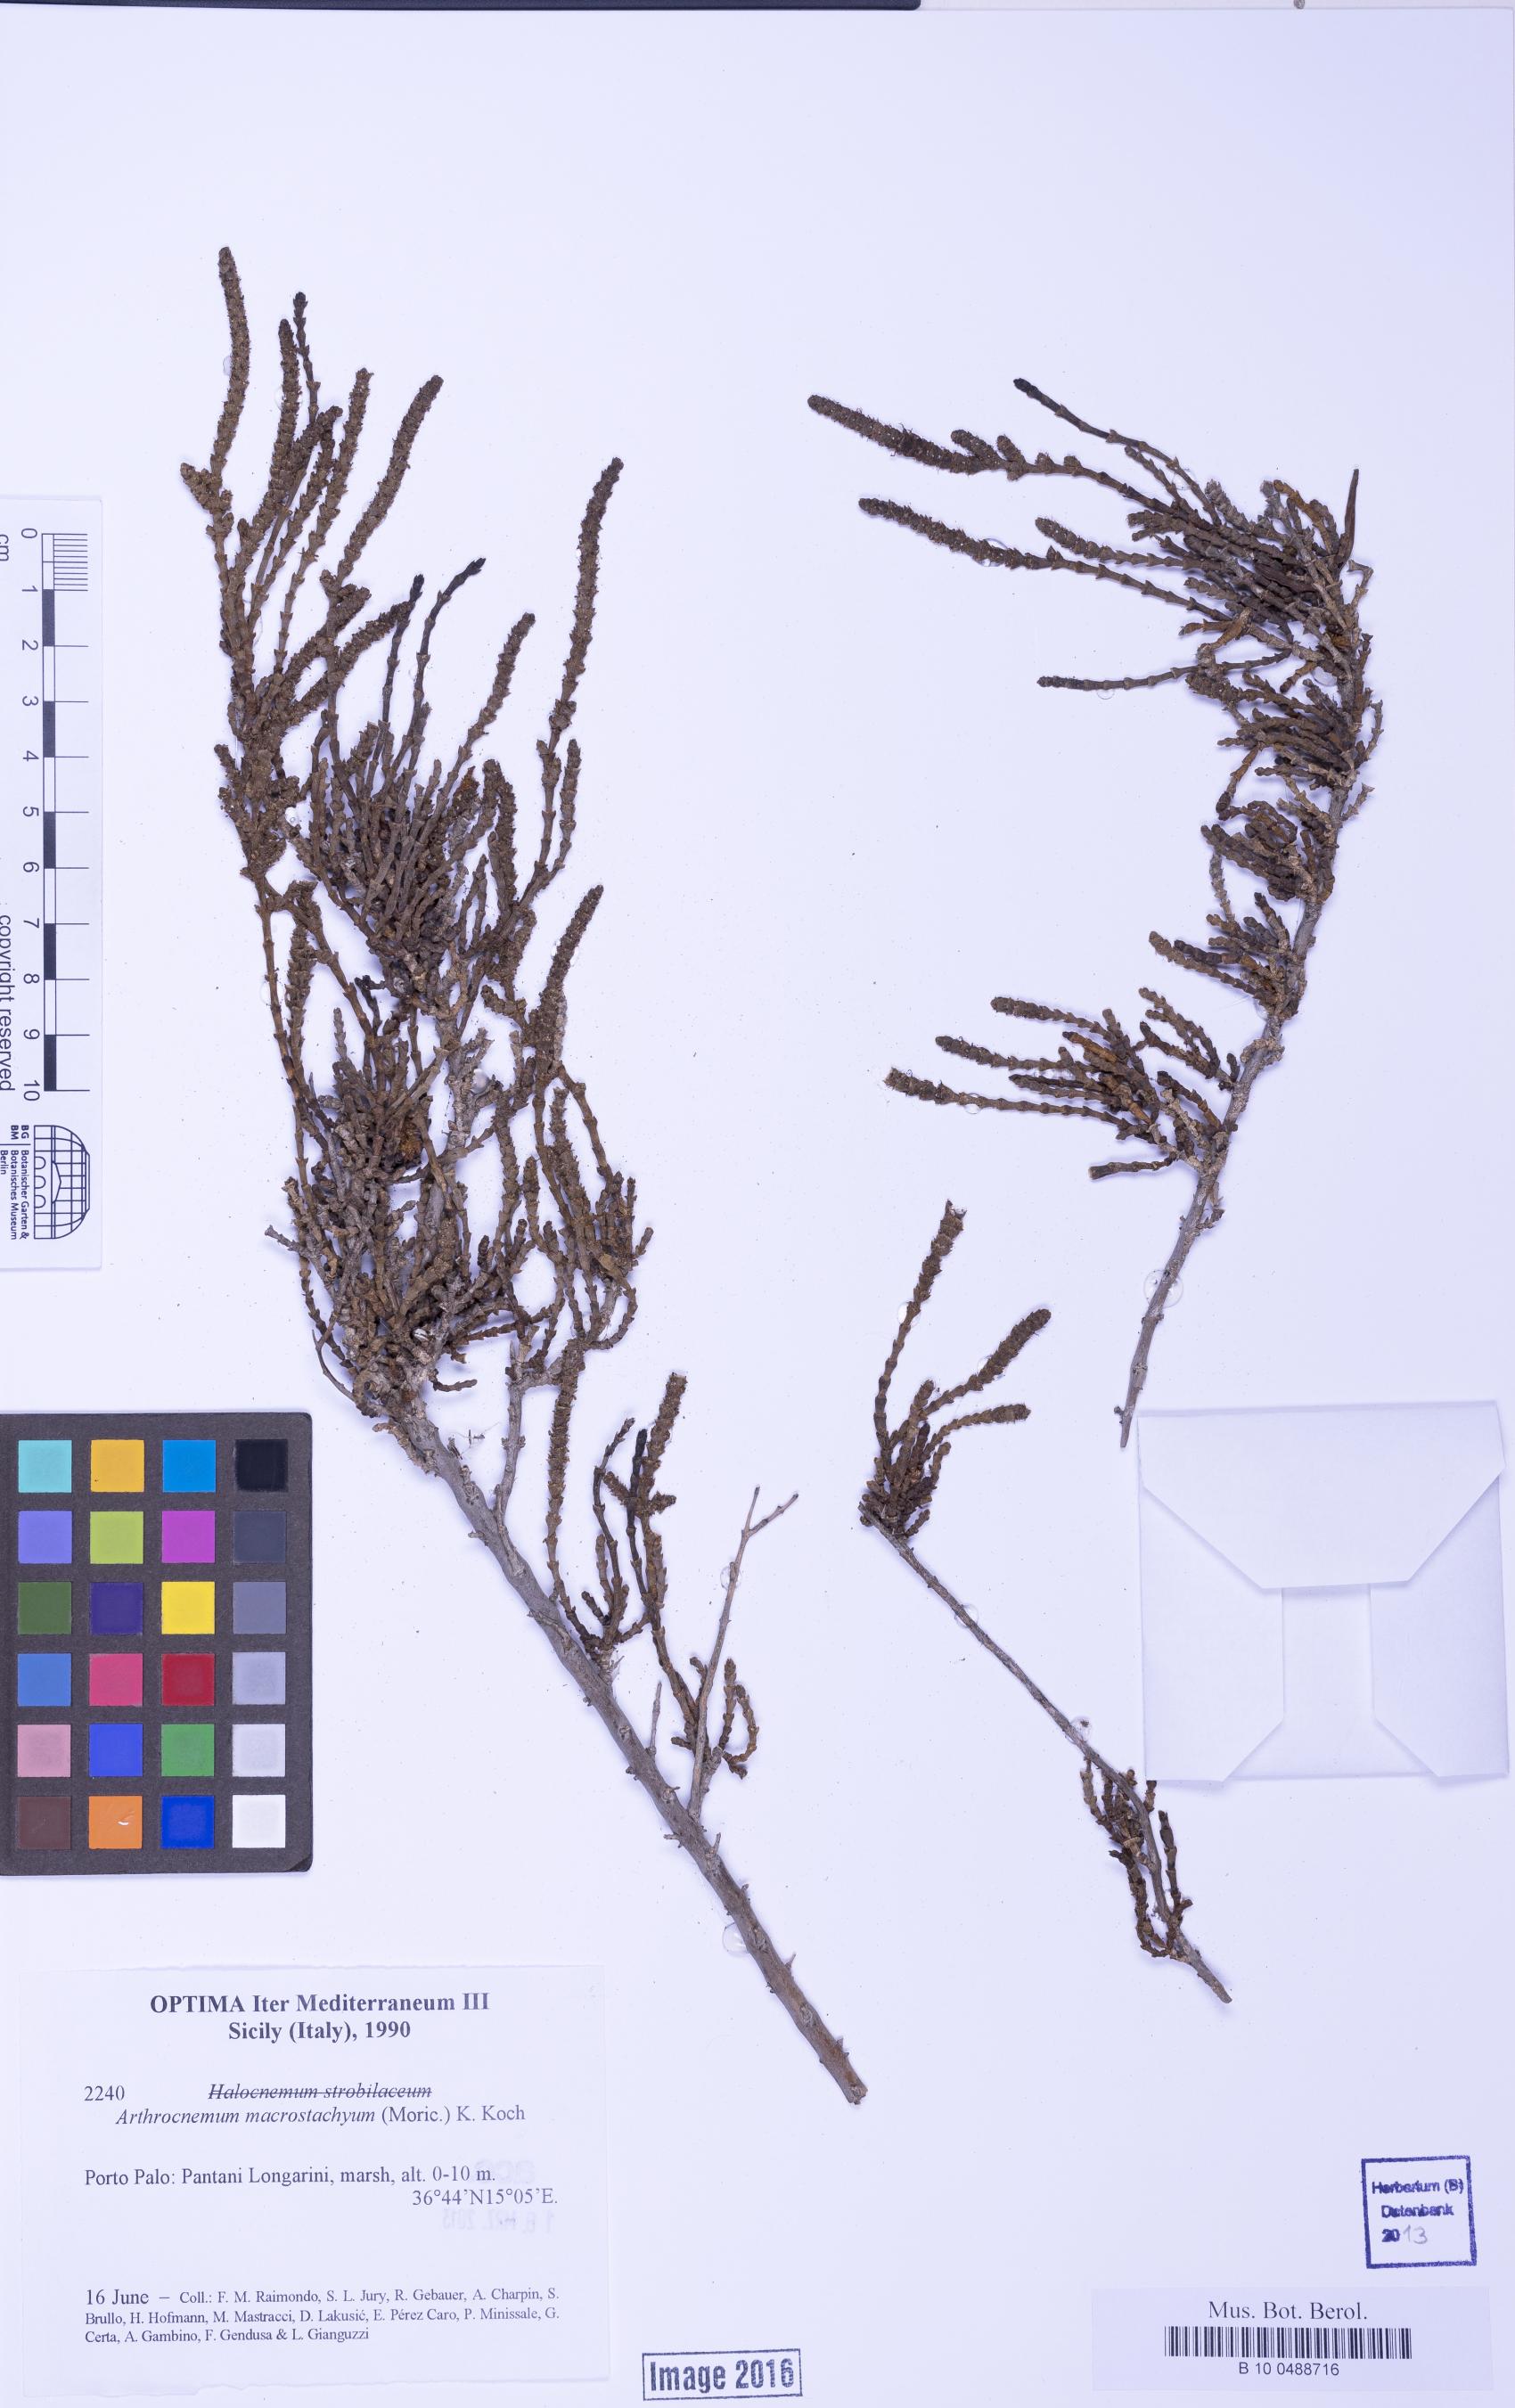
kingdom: Plantae
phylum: Tracheophyta
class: Magnoliopsida
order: Caryophyllales
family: Amaranthaceae
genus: Halocnemum
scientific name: Halocnemum strobilaceum
